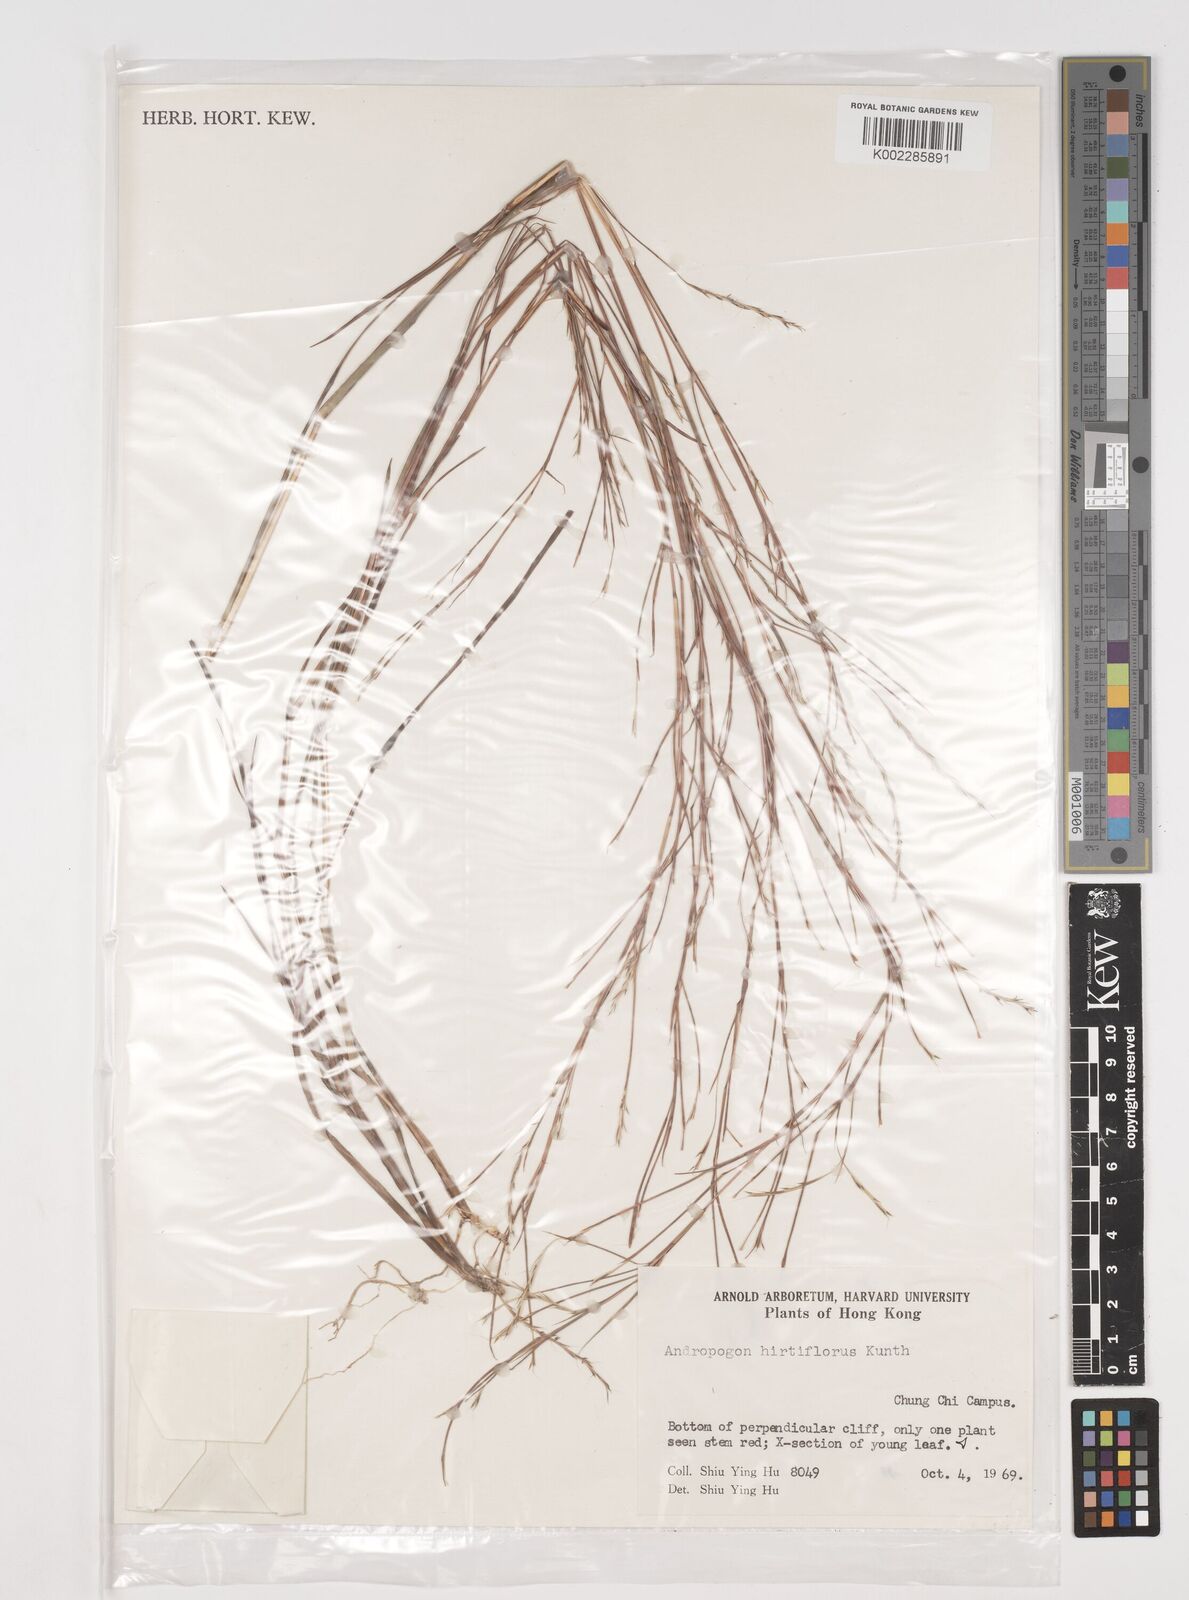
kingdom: Plantae
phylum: Tracheophyta
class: Liliopsida
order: Poales
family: Poaceae
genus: Schizachyrium
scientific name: Schizachyrium sanguineum
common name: Crimson bluestem
